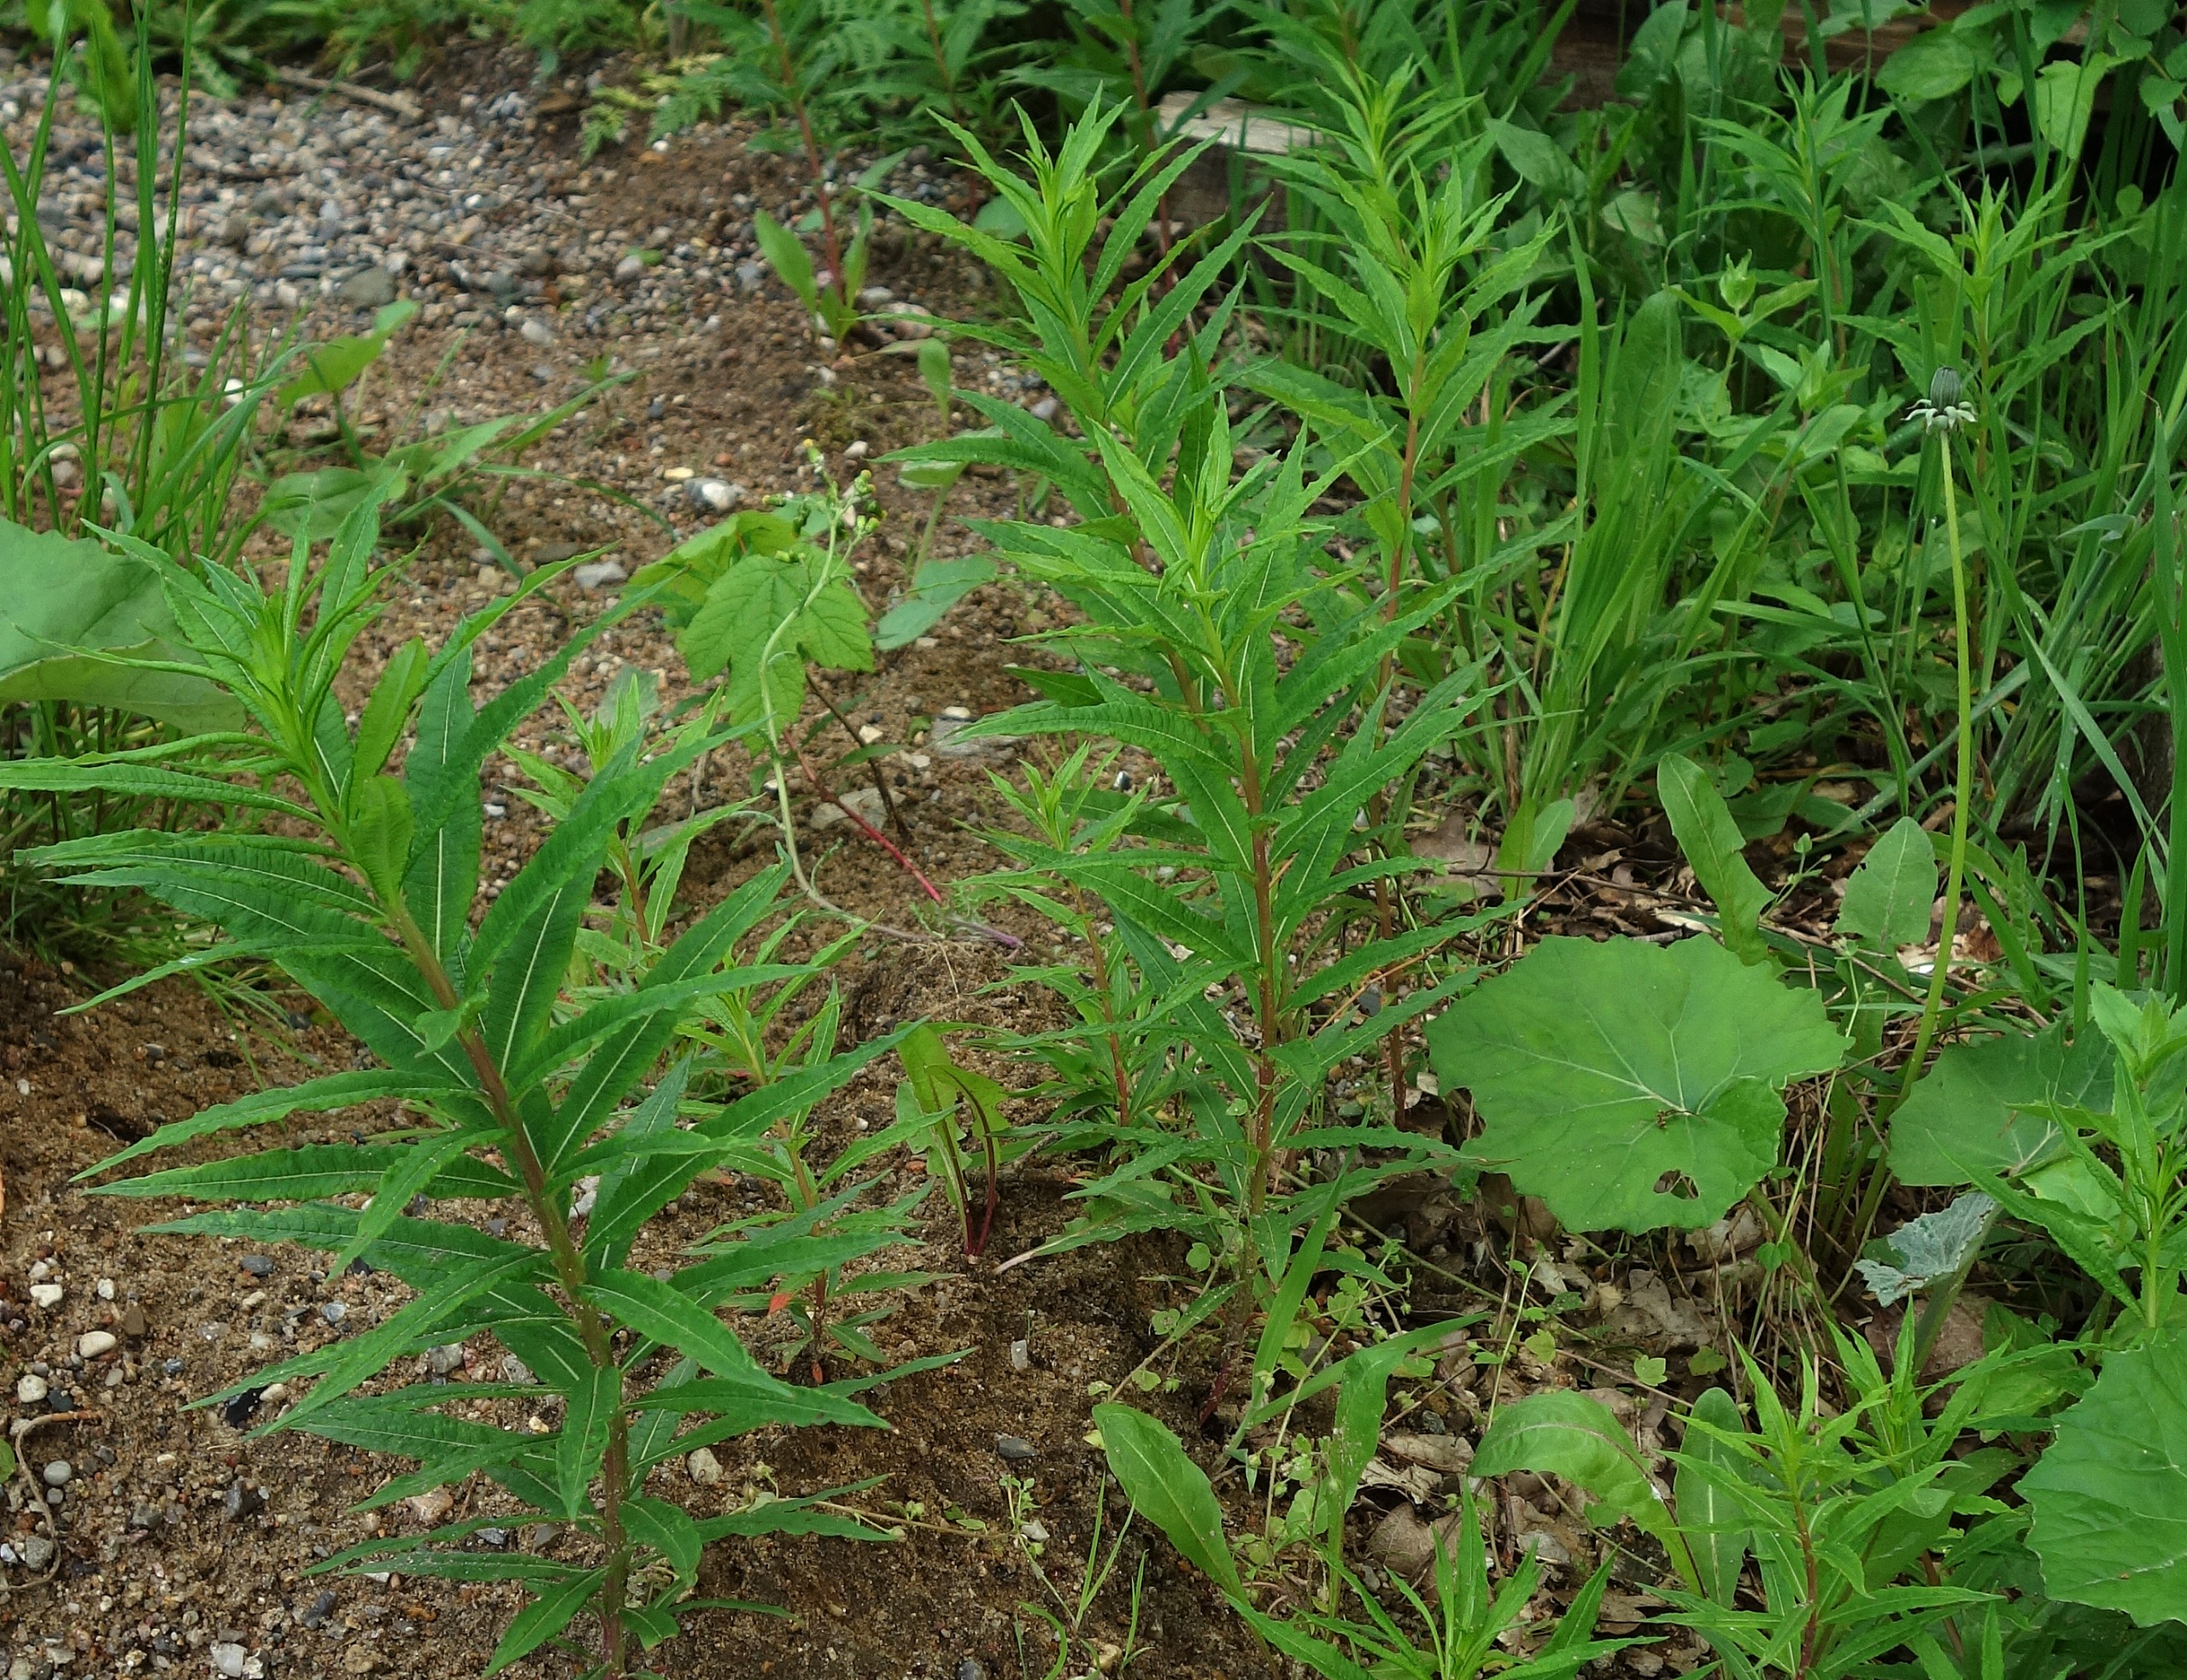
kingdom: Plantae
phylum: Tracheophyta
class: Magnoliopsida
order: Myrtales
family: Onagraceae
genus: Chamaenerion
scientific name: Chamaenerion angustifolium
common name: Gederams
